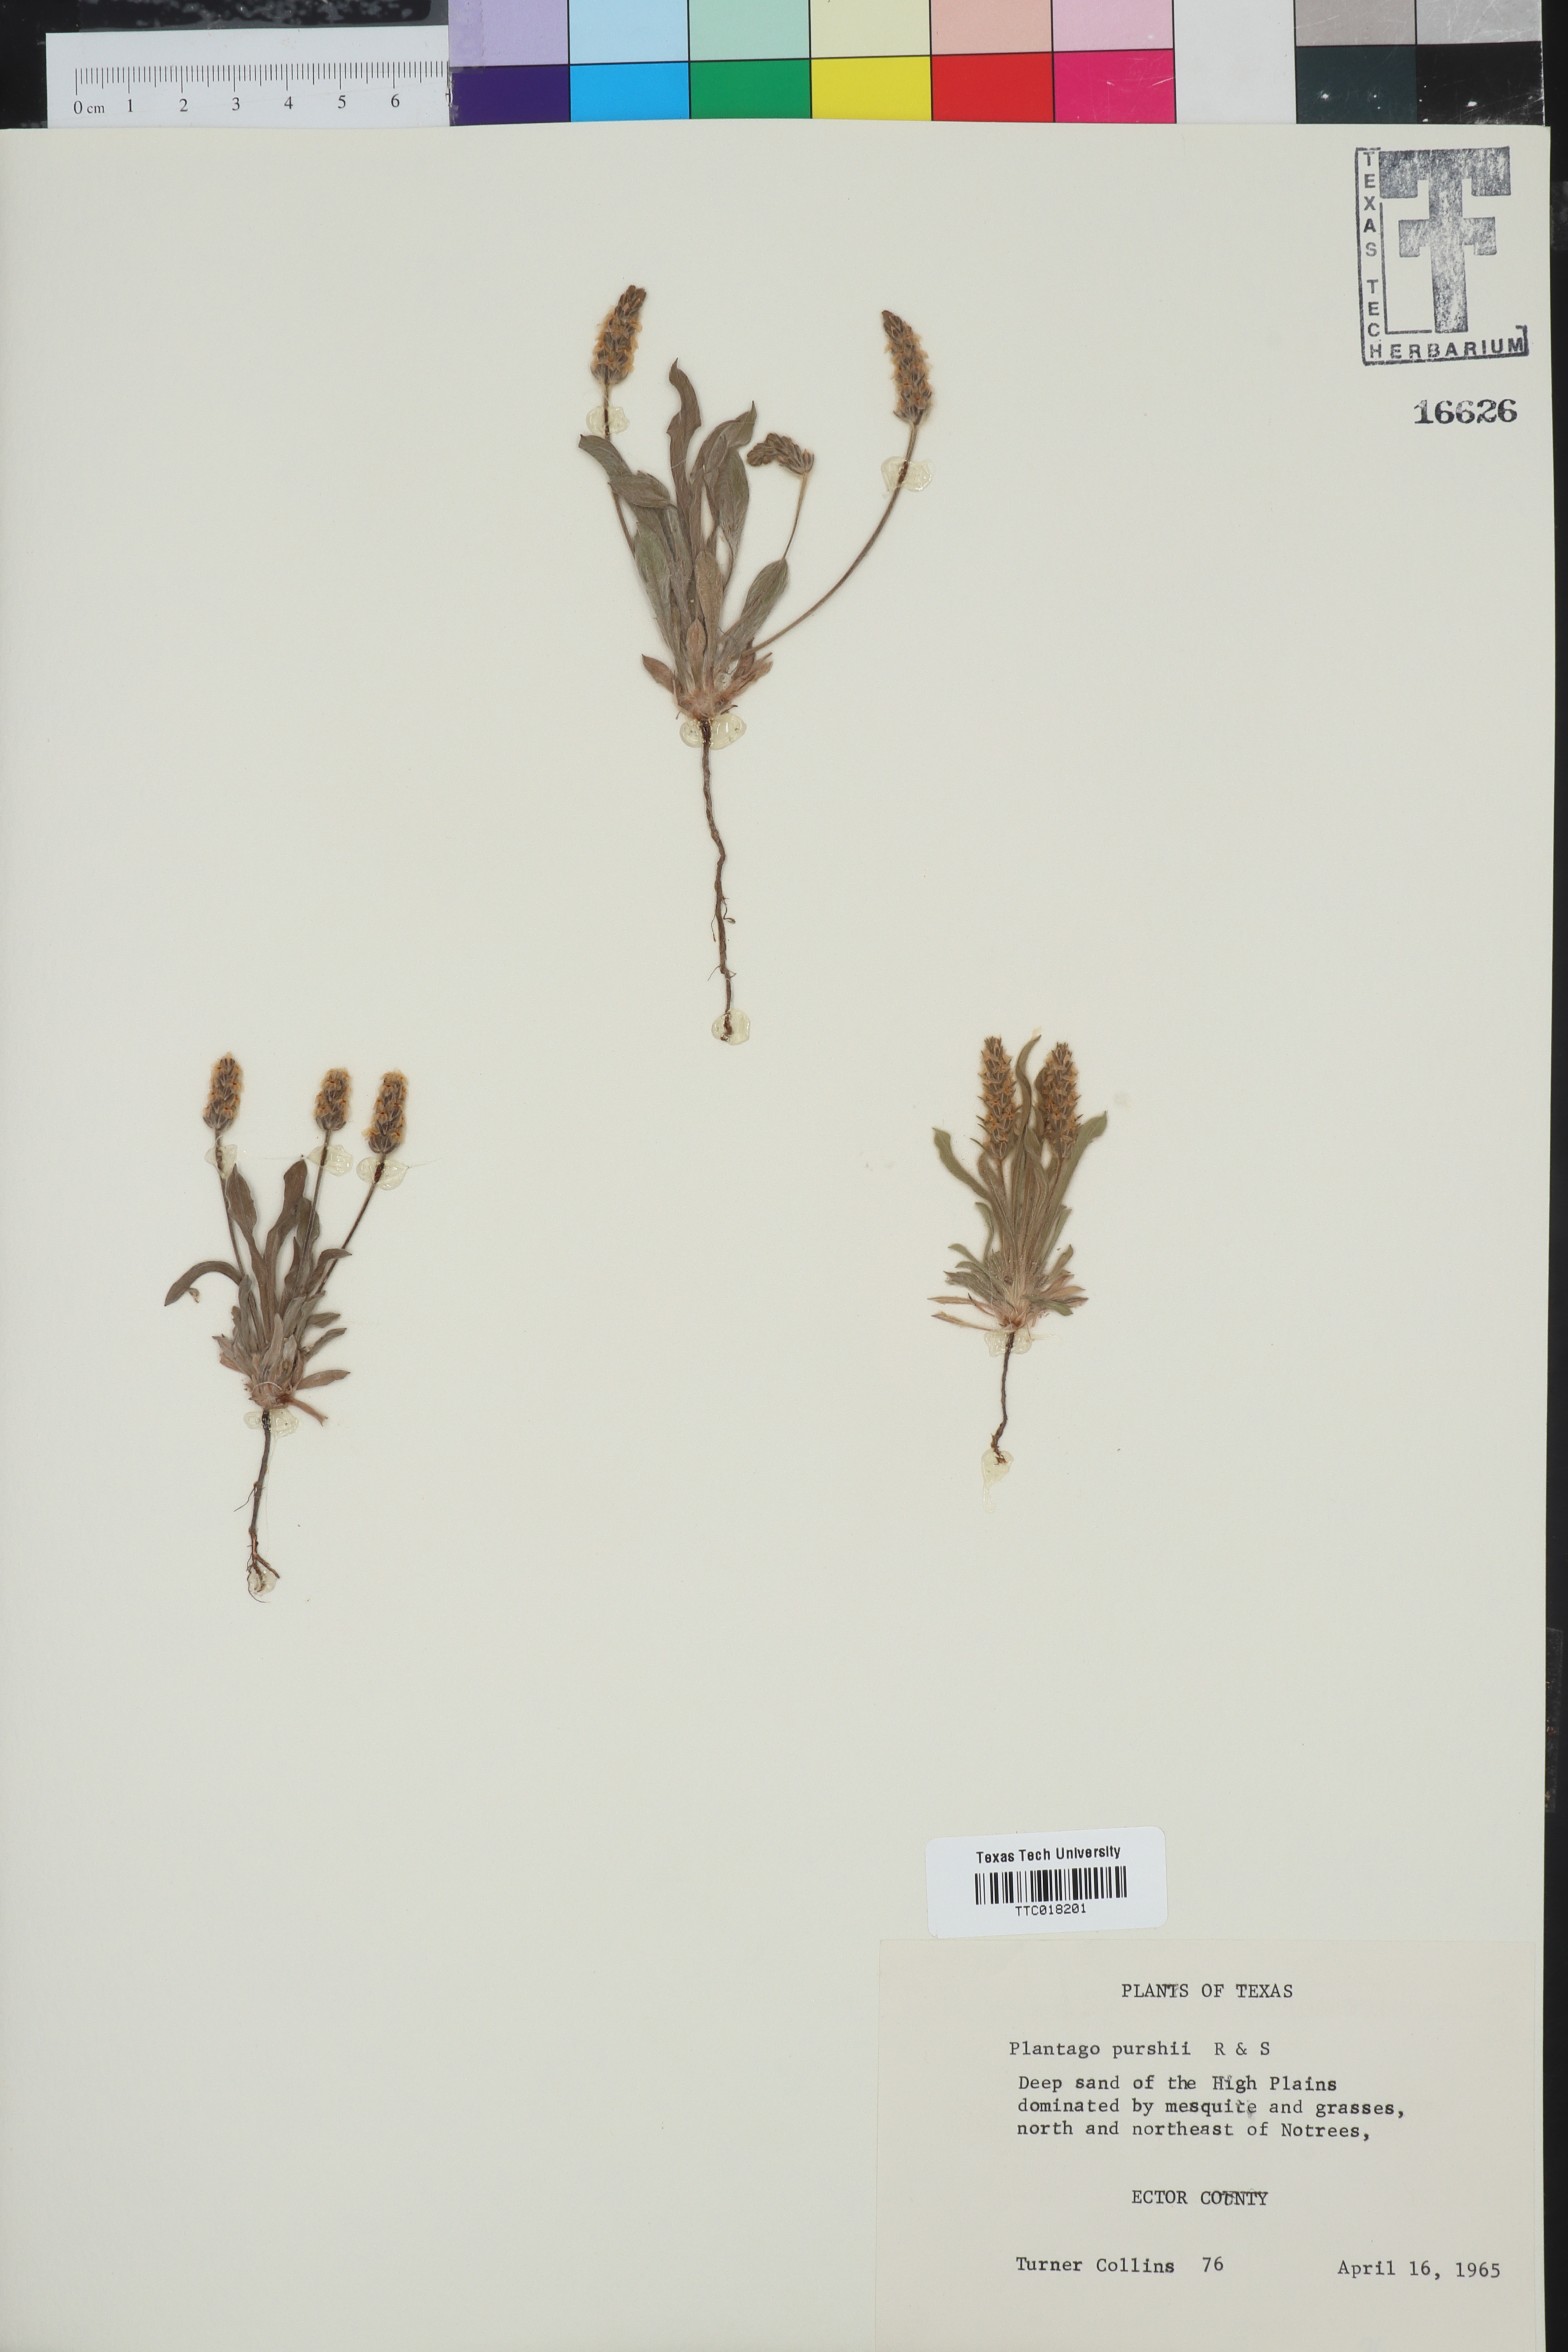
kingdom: Plantae
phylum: Tracheophyta
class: Magnoliopsida
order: Lamiales
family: Plantaginaceae
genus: Plantago
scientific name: Plantago patagonica
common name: Patagonia indian-wheat
